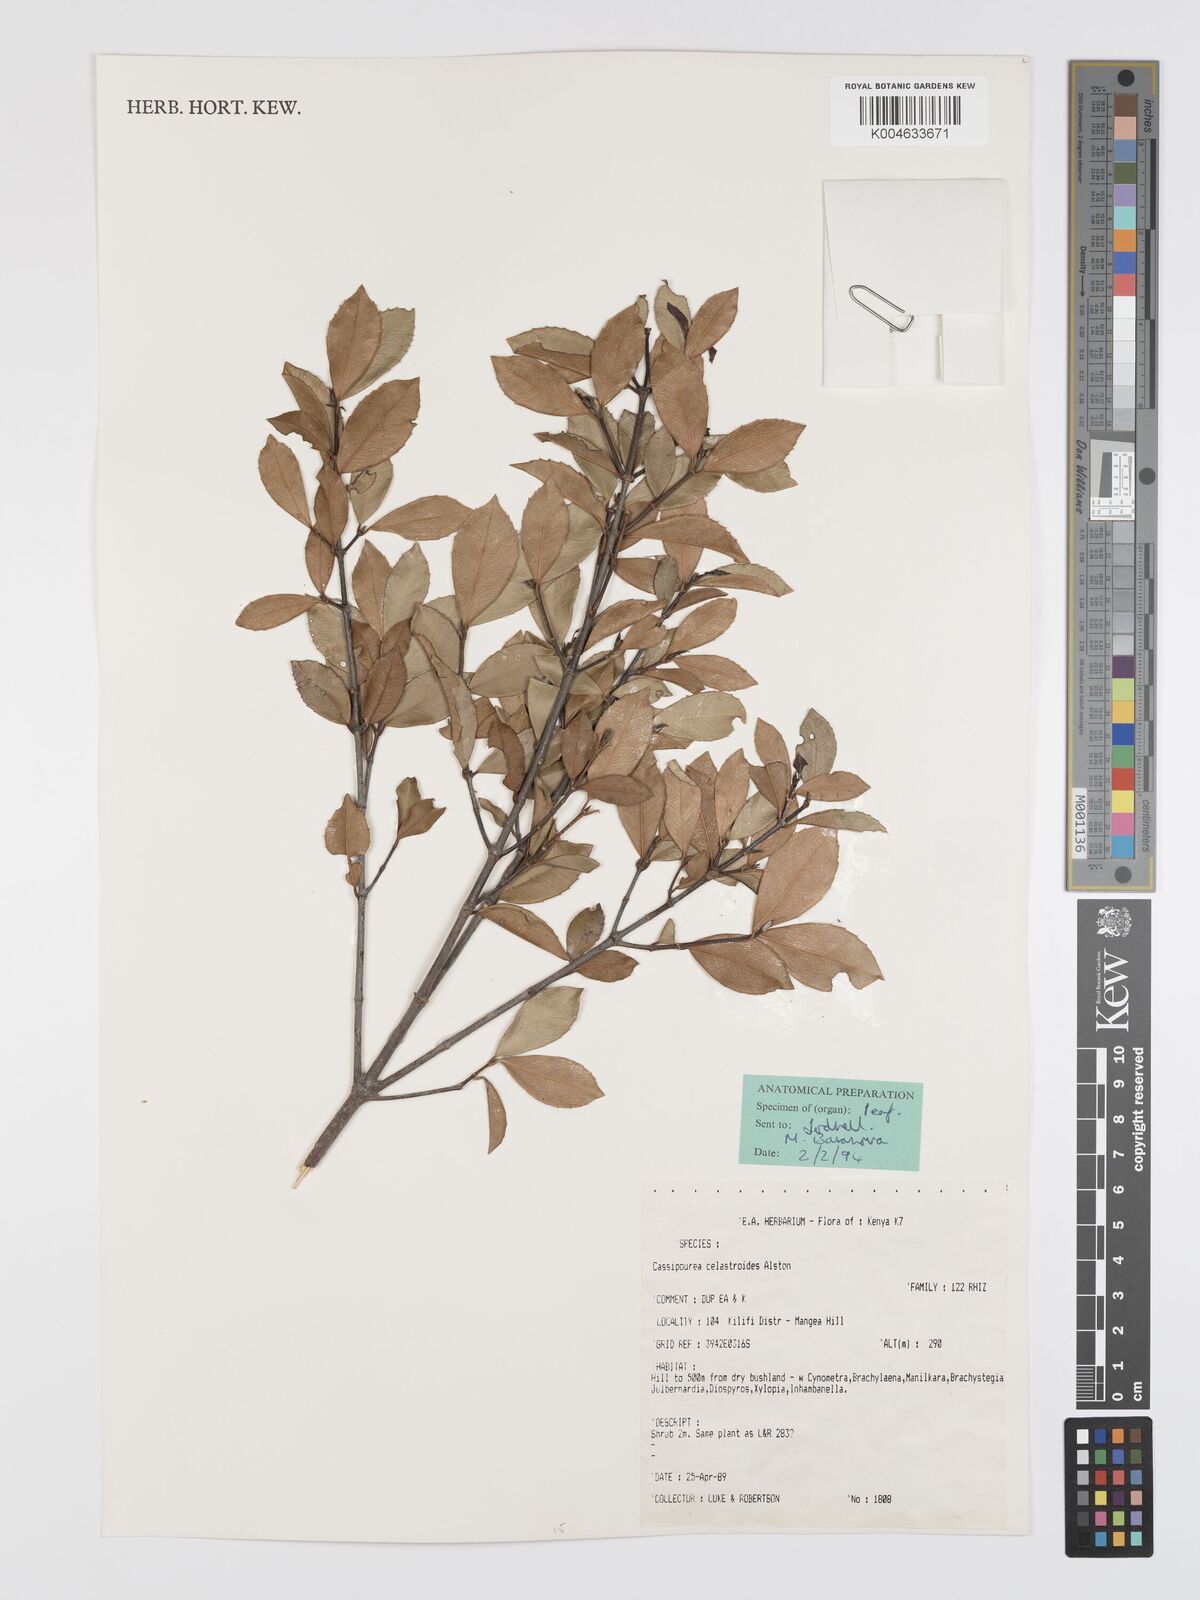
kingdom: Plantae
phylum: Tracheophyta
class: Magnoliopsida
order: Malpighiales
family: Rhizophoraceae
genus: Cassipourea
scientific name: Cassipourea celastroides
